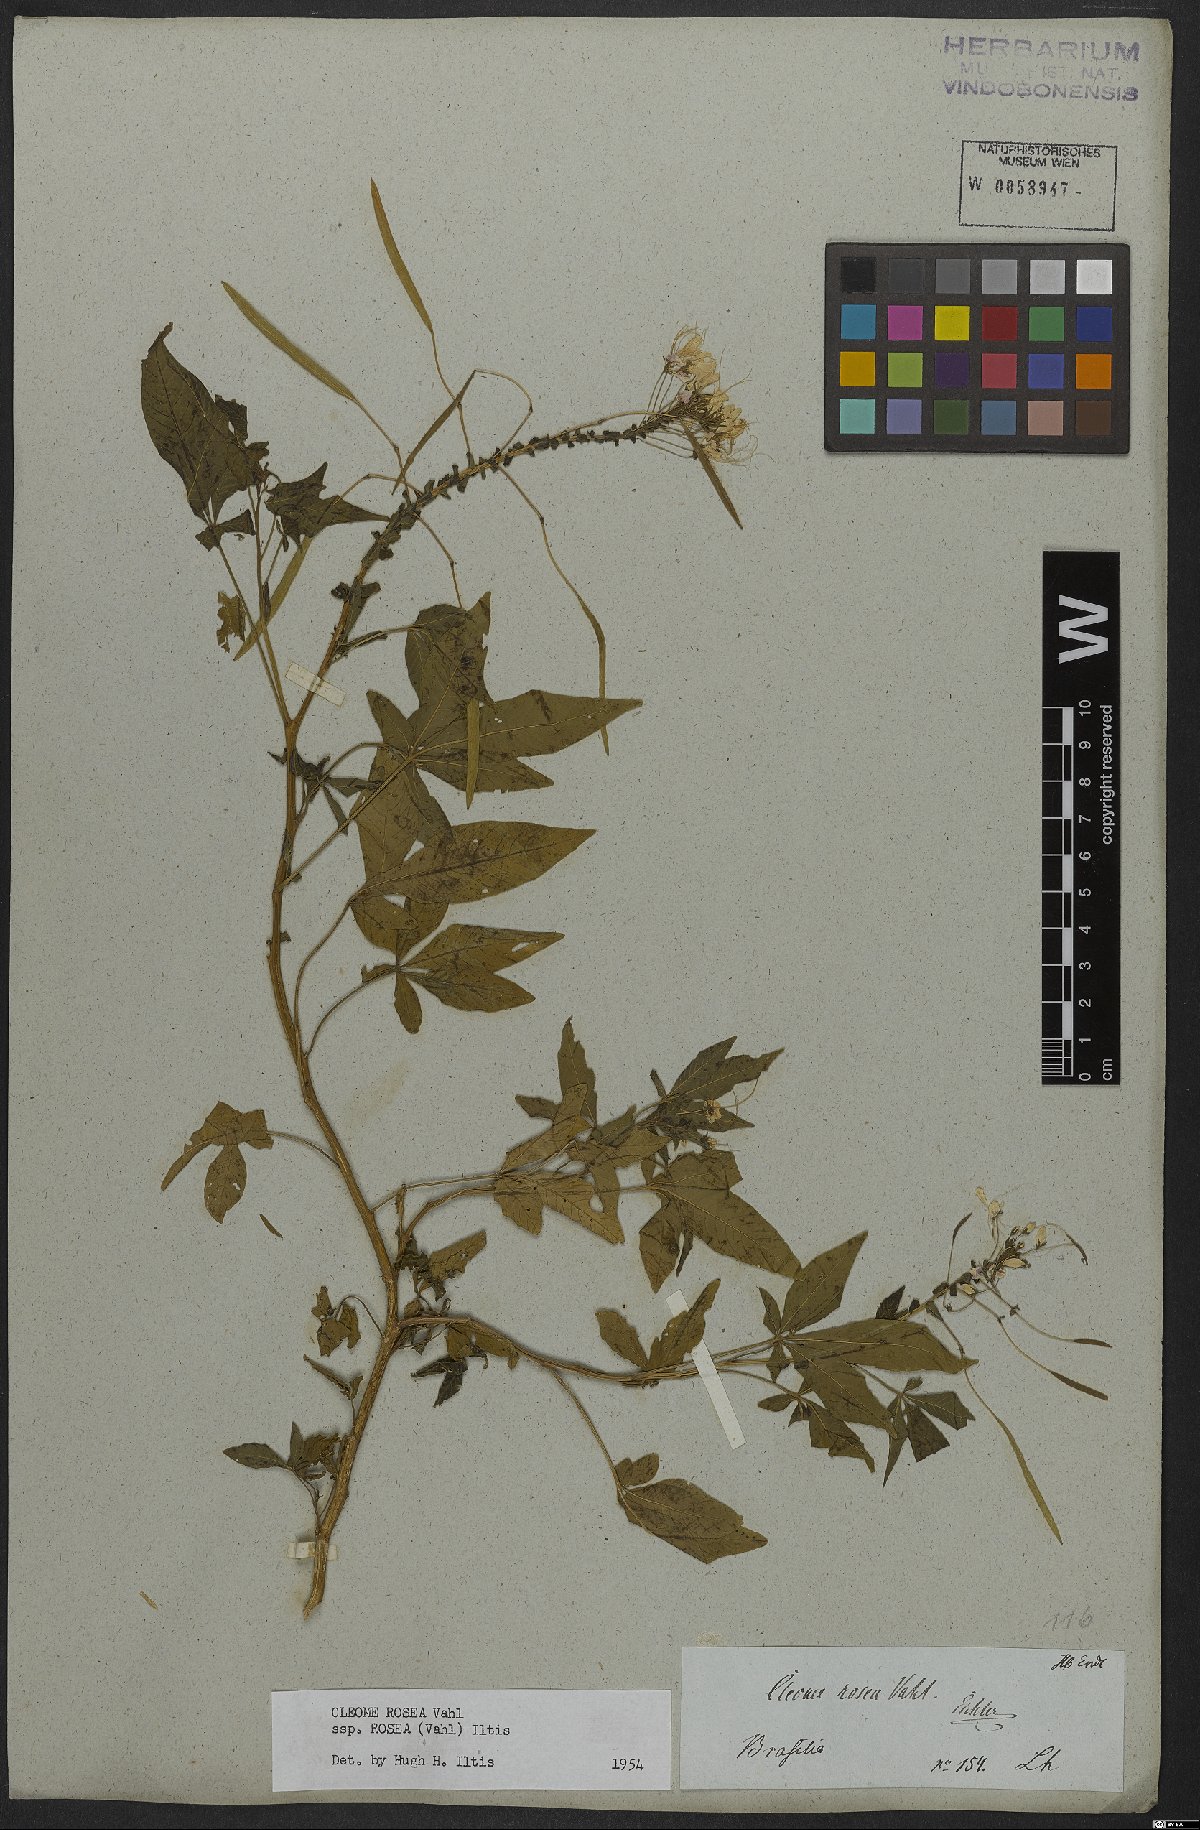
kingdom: Plantae
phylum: Tracheophyta
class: Magnoliopsida
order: Brassicales
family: Cleomaceae
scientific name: Cleomaceae
